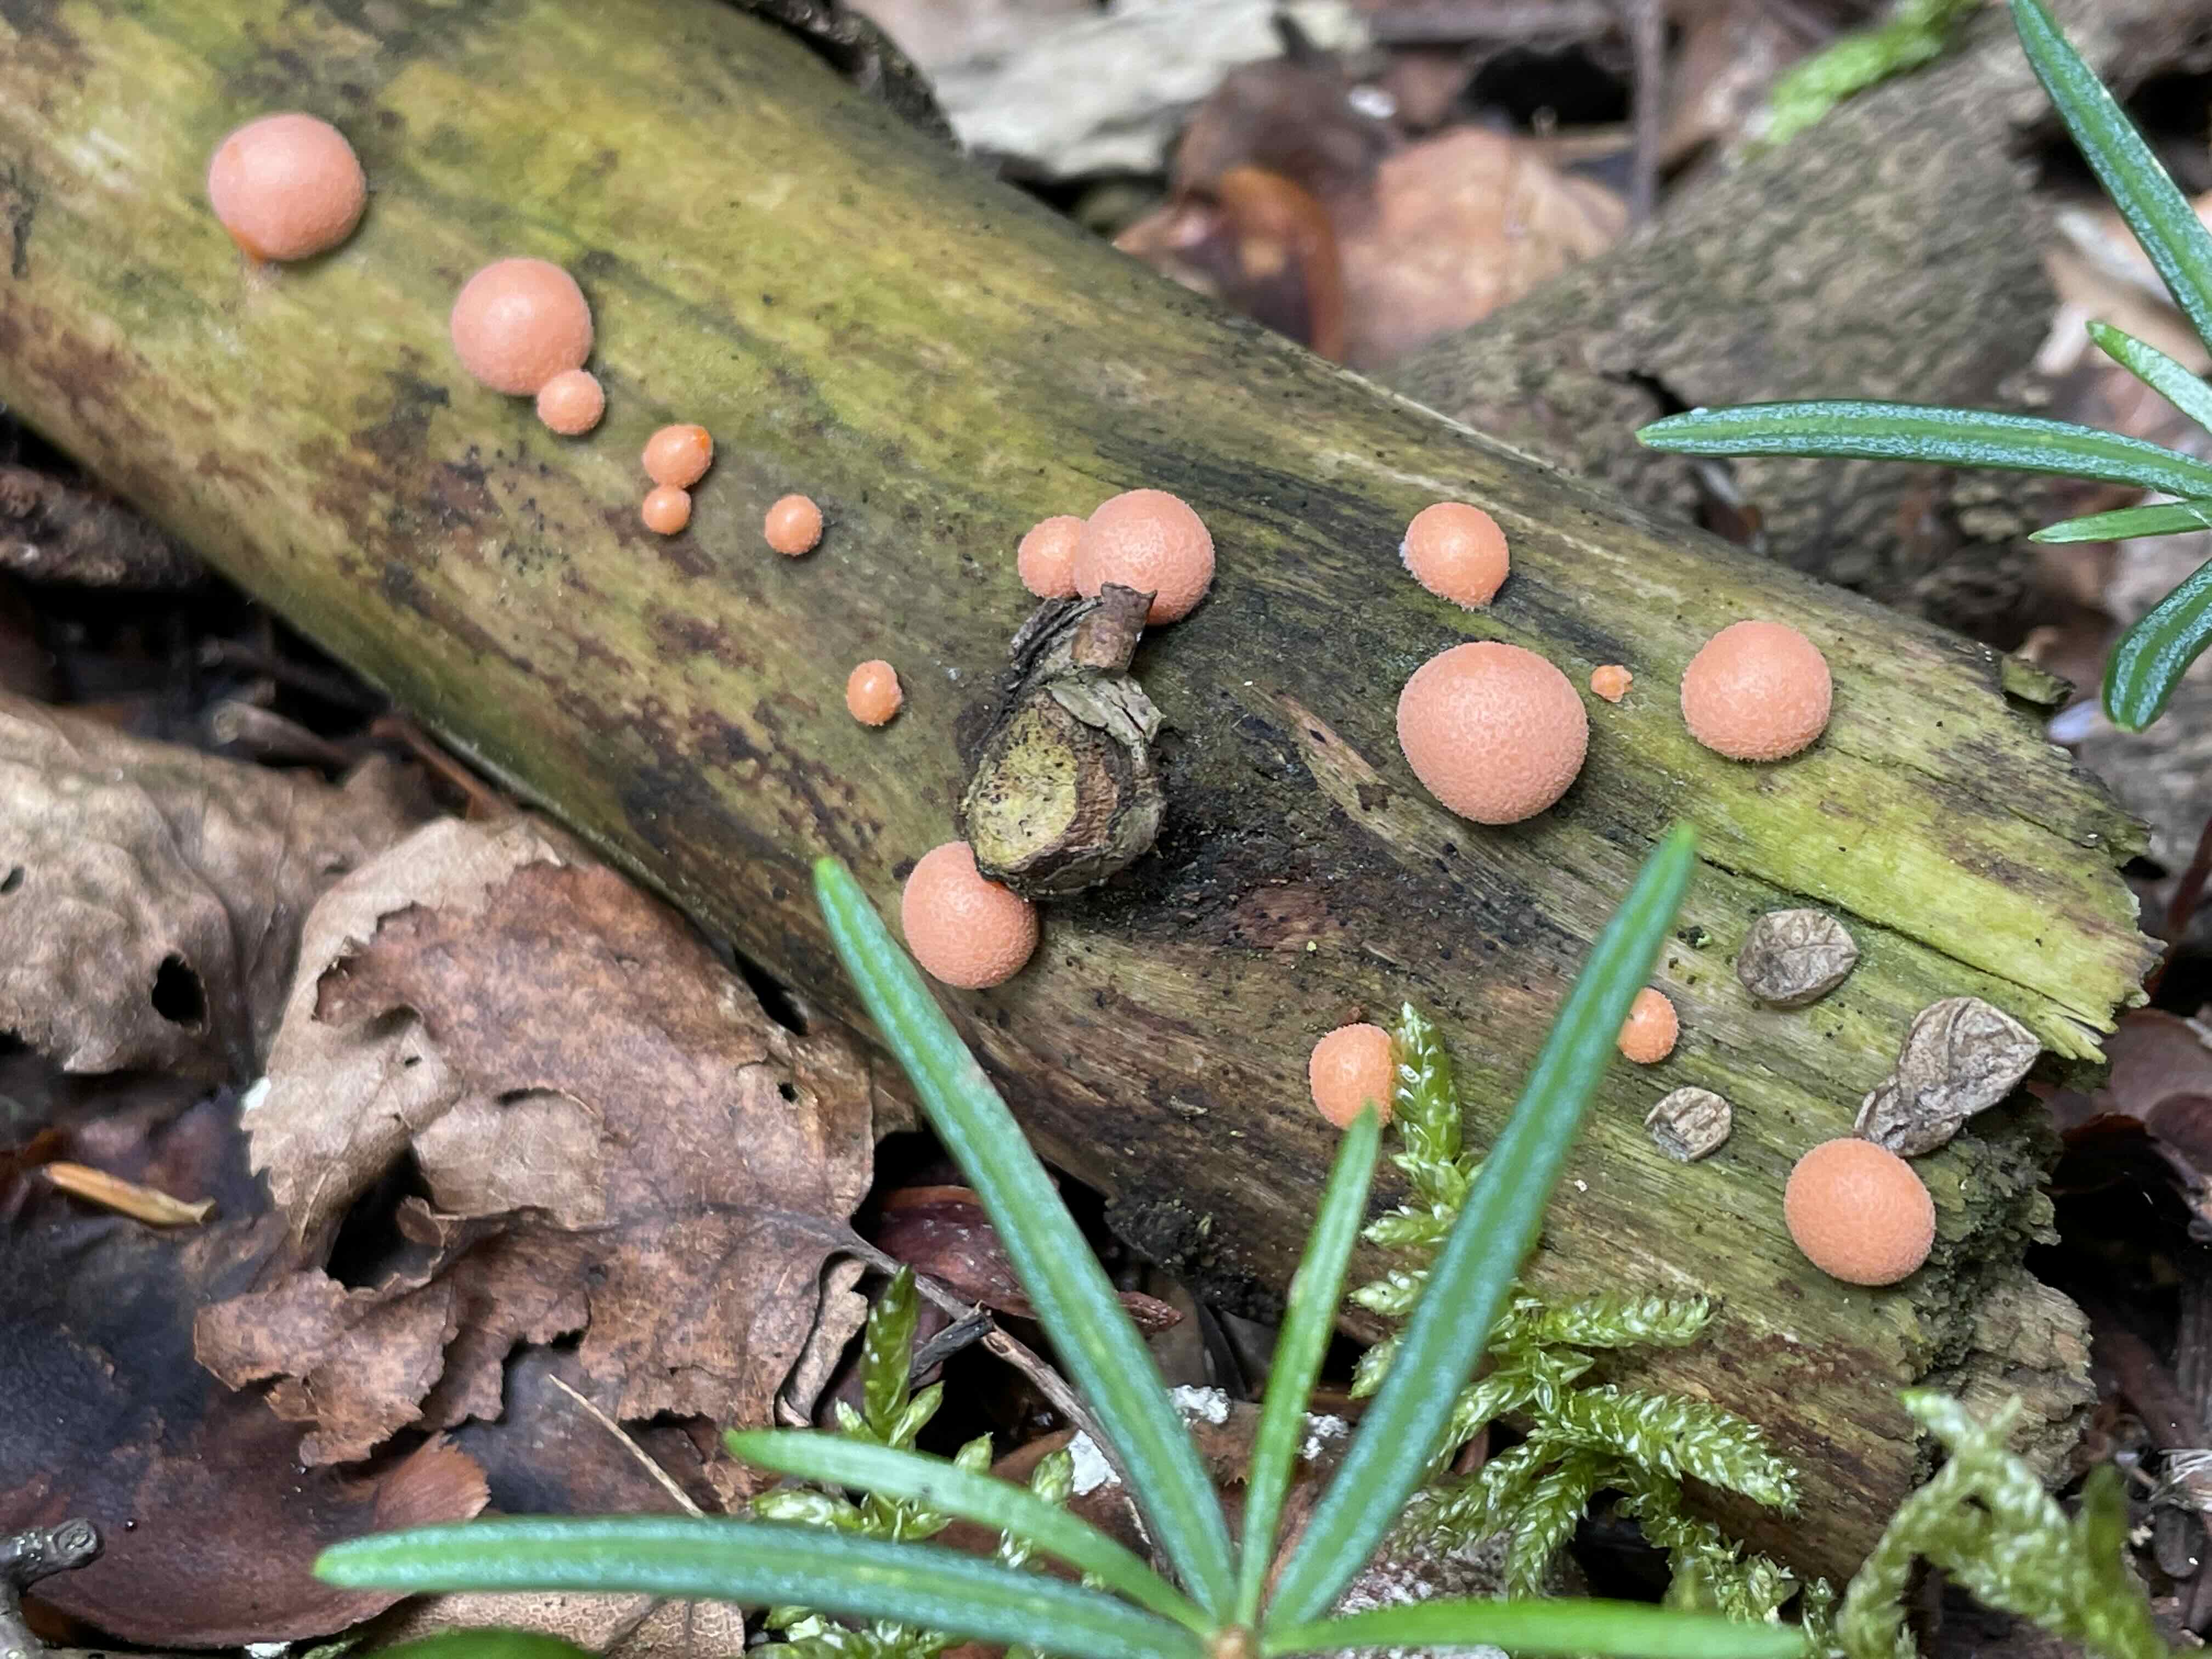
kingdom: Protozoa
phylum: Mycetozoa
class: Myxomycetes
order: Cribrariales
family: Tubiferaceae
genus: Lycogala
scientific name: Lycogala epidendrum
